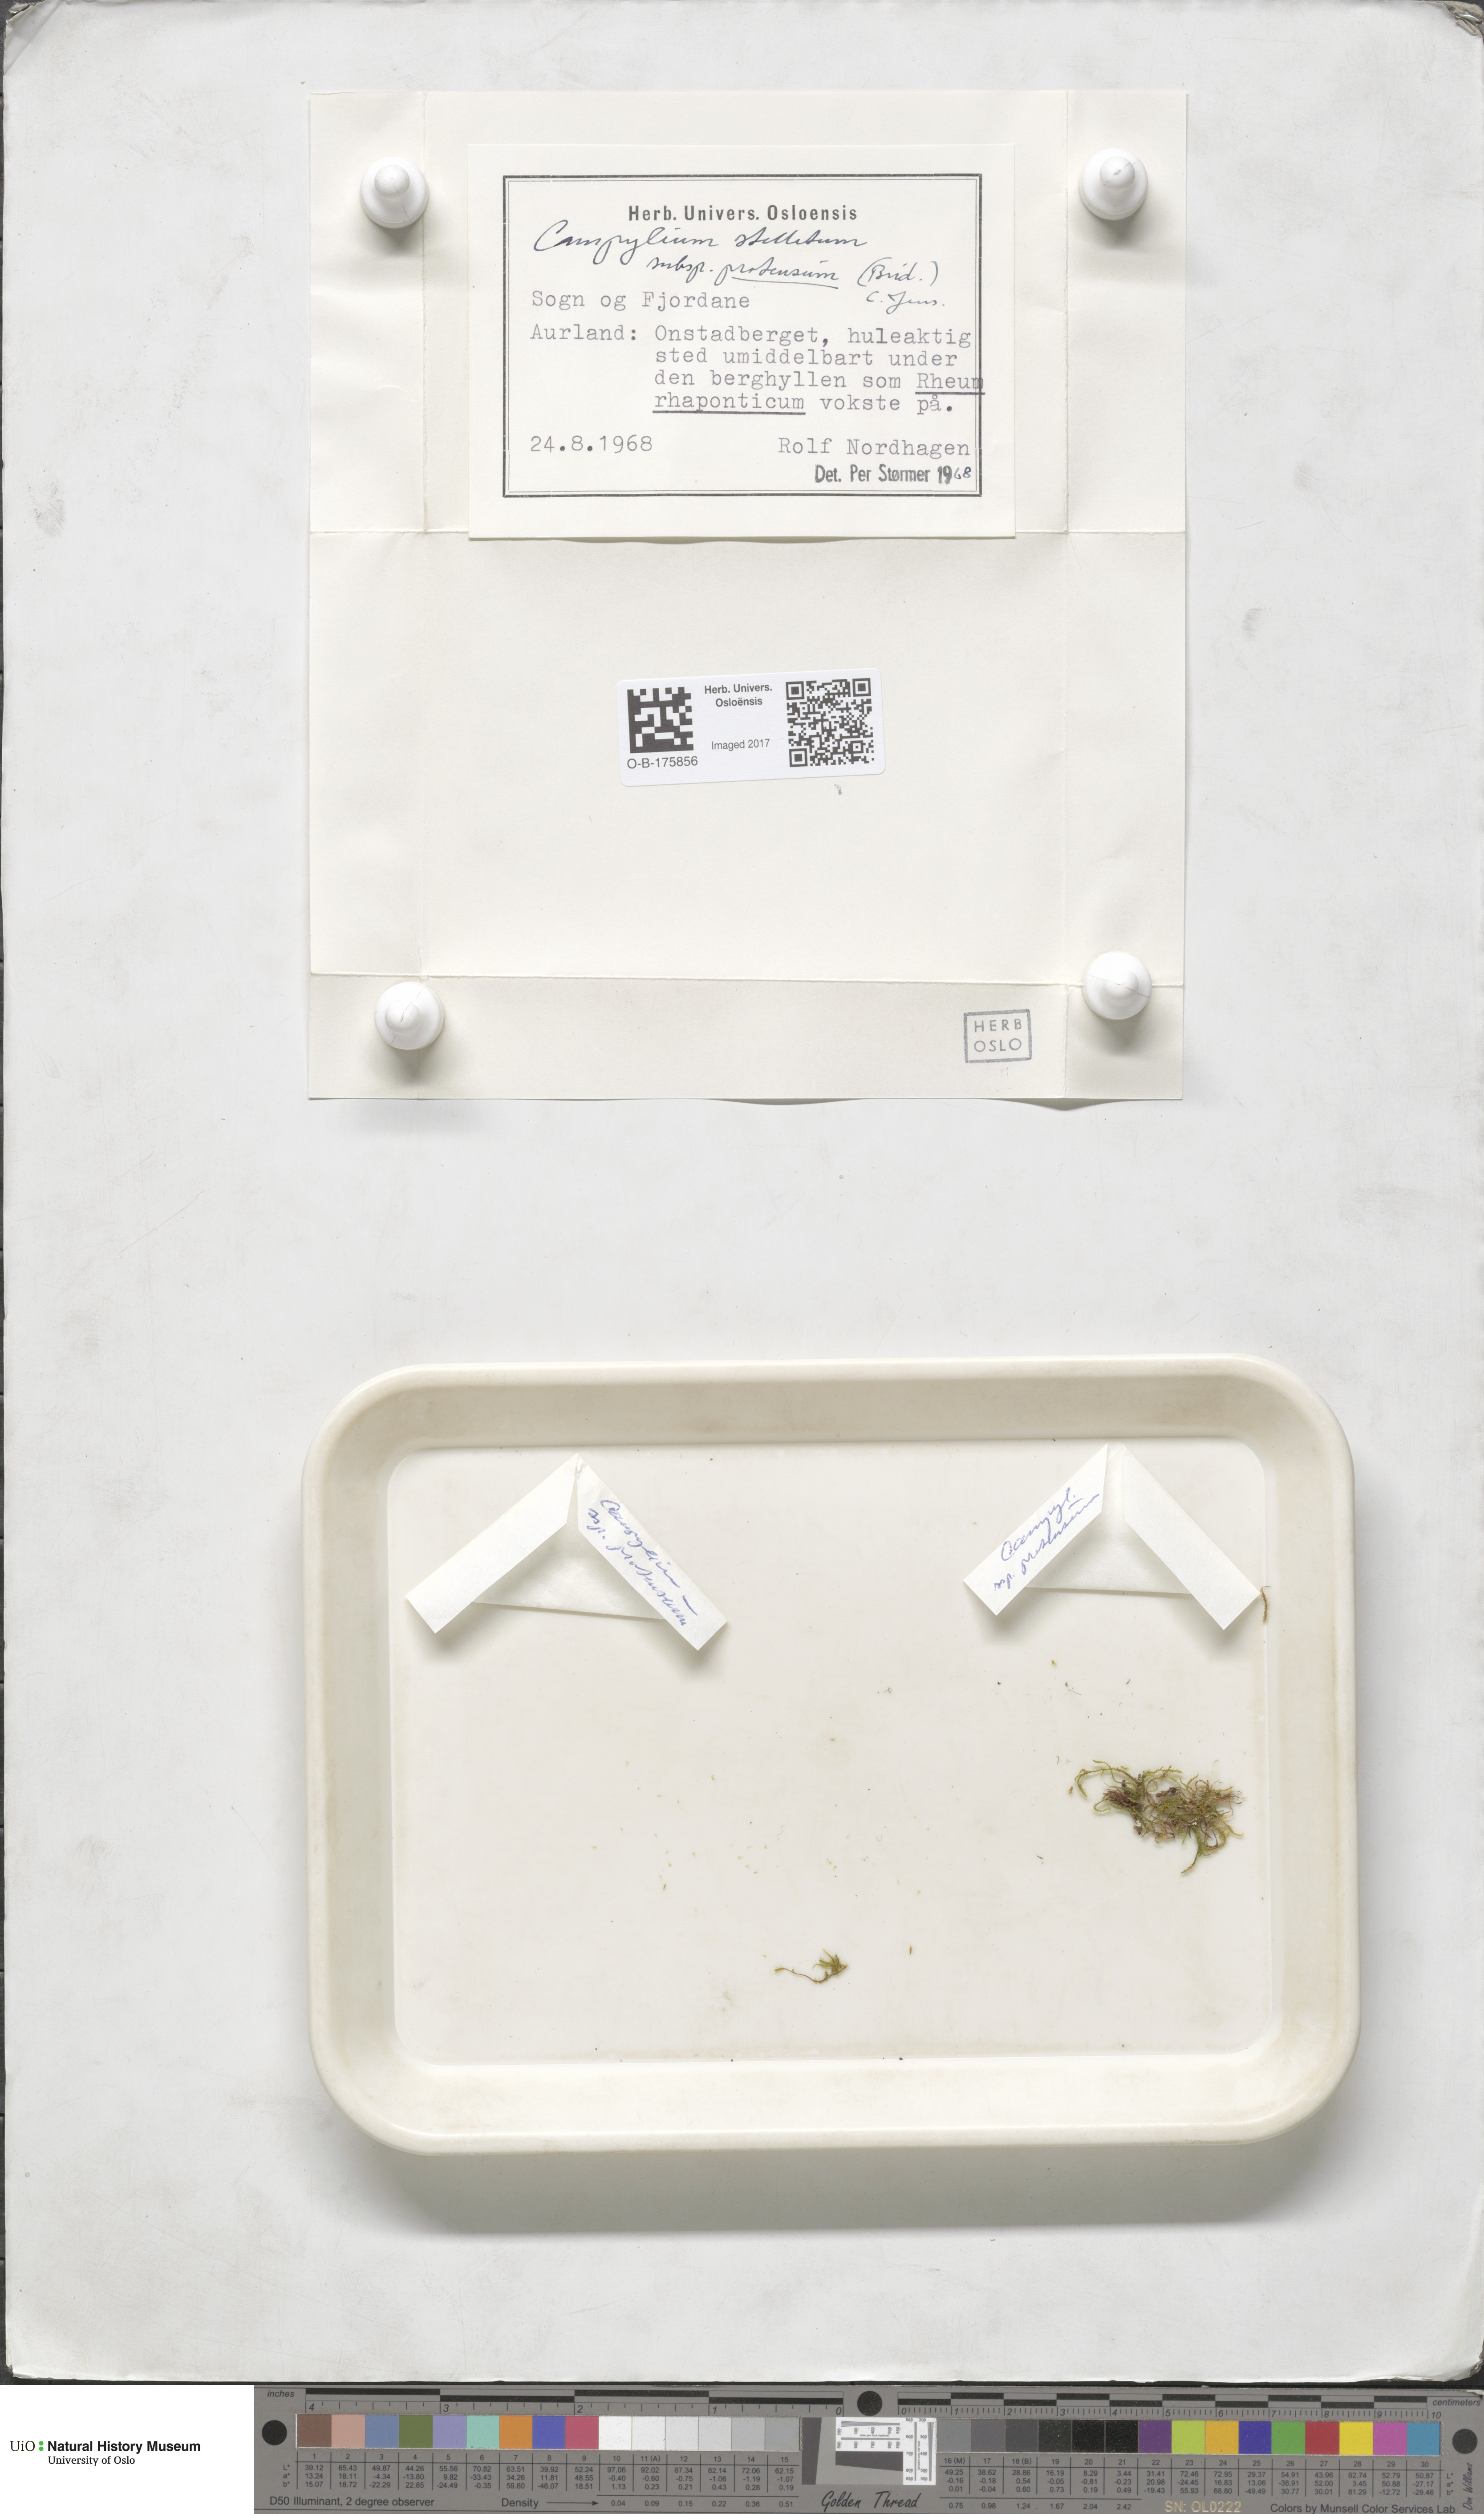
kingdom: Plantae
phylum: Bryophyta
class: Bryopsida
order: Hypnales
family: Amblystegiaceae
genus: Campylium
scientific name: Campylium stellatum
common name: Yellow starry fen moss
